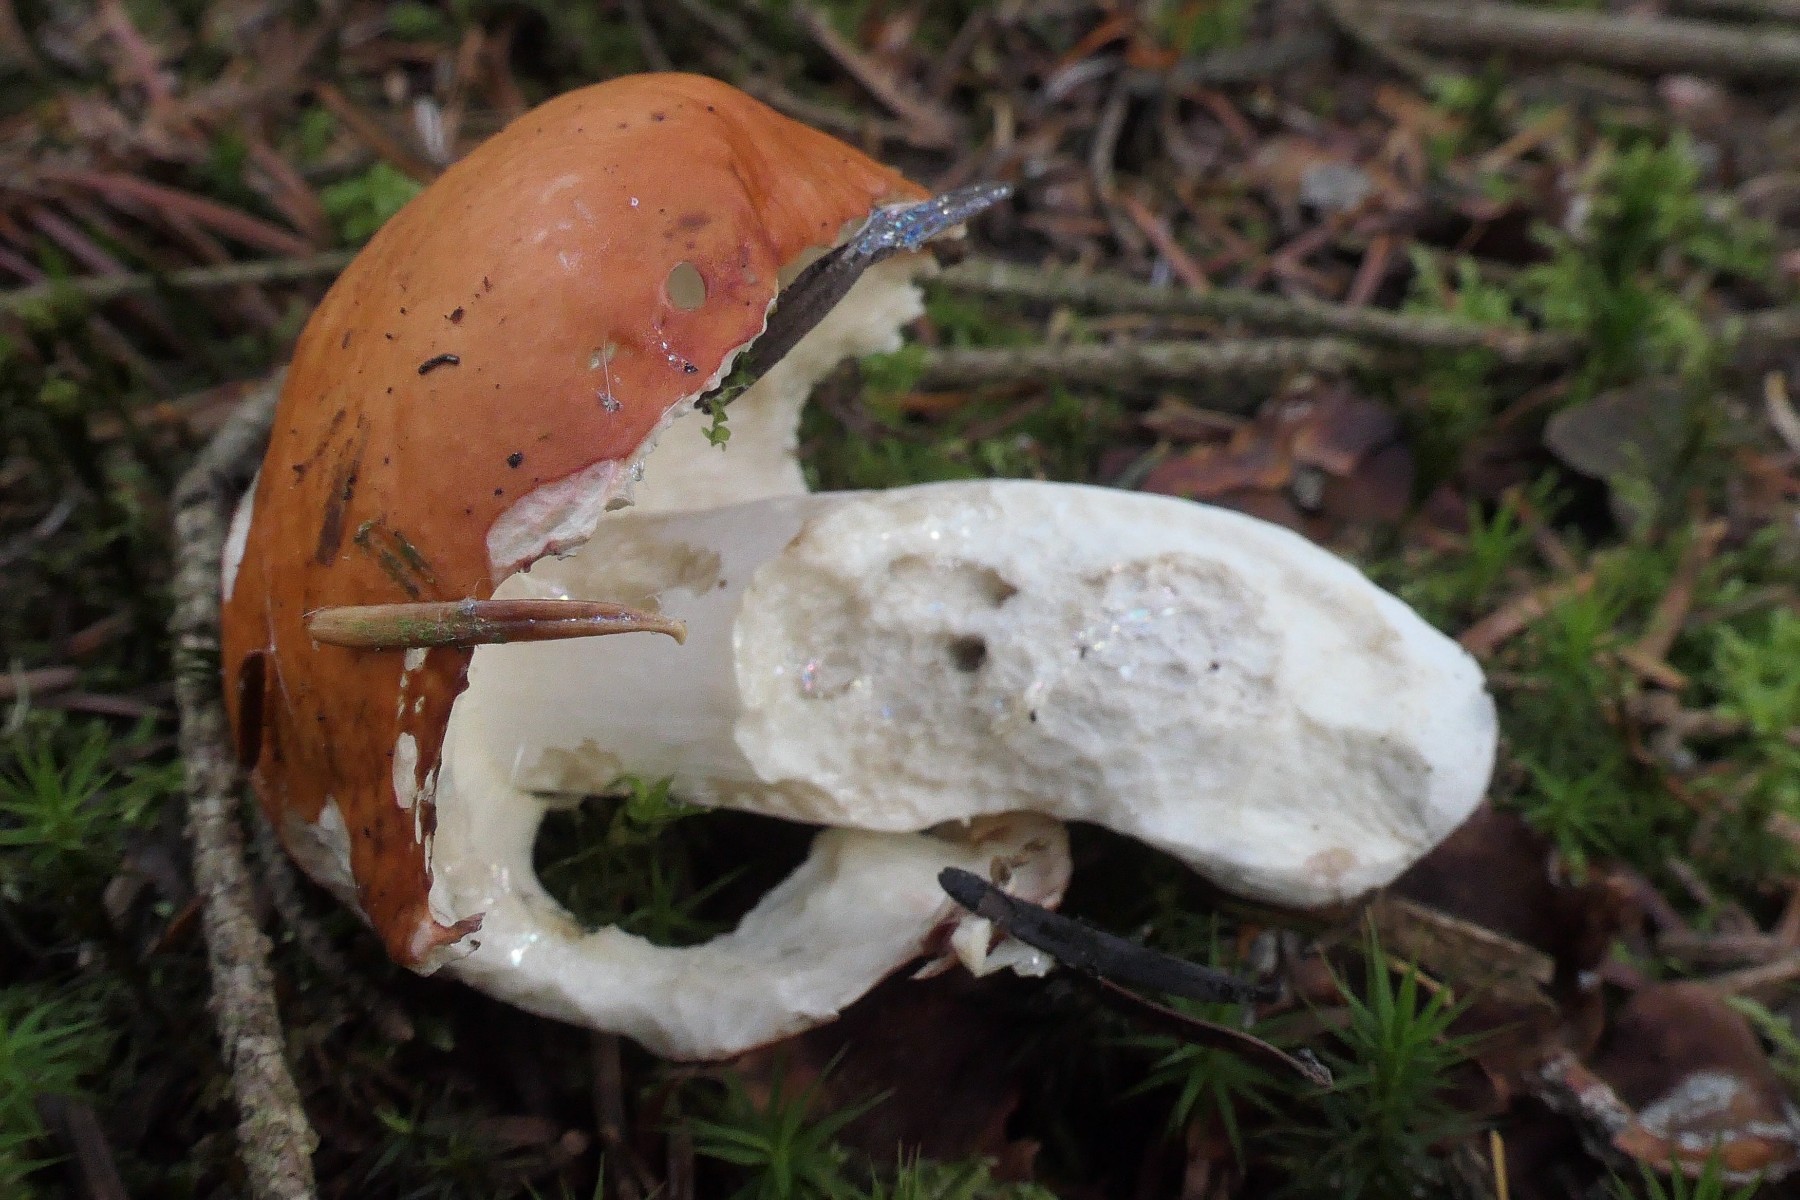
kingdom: Fungi
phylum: Basidiomycota
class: Agaricomycetes
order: Russulales
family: Russulaceae
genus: Russula
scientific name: Russula decolorans
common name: afblegende skørhat
